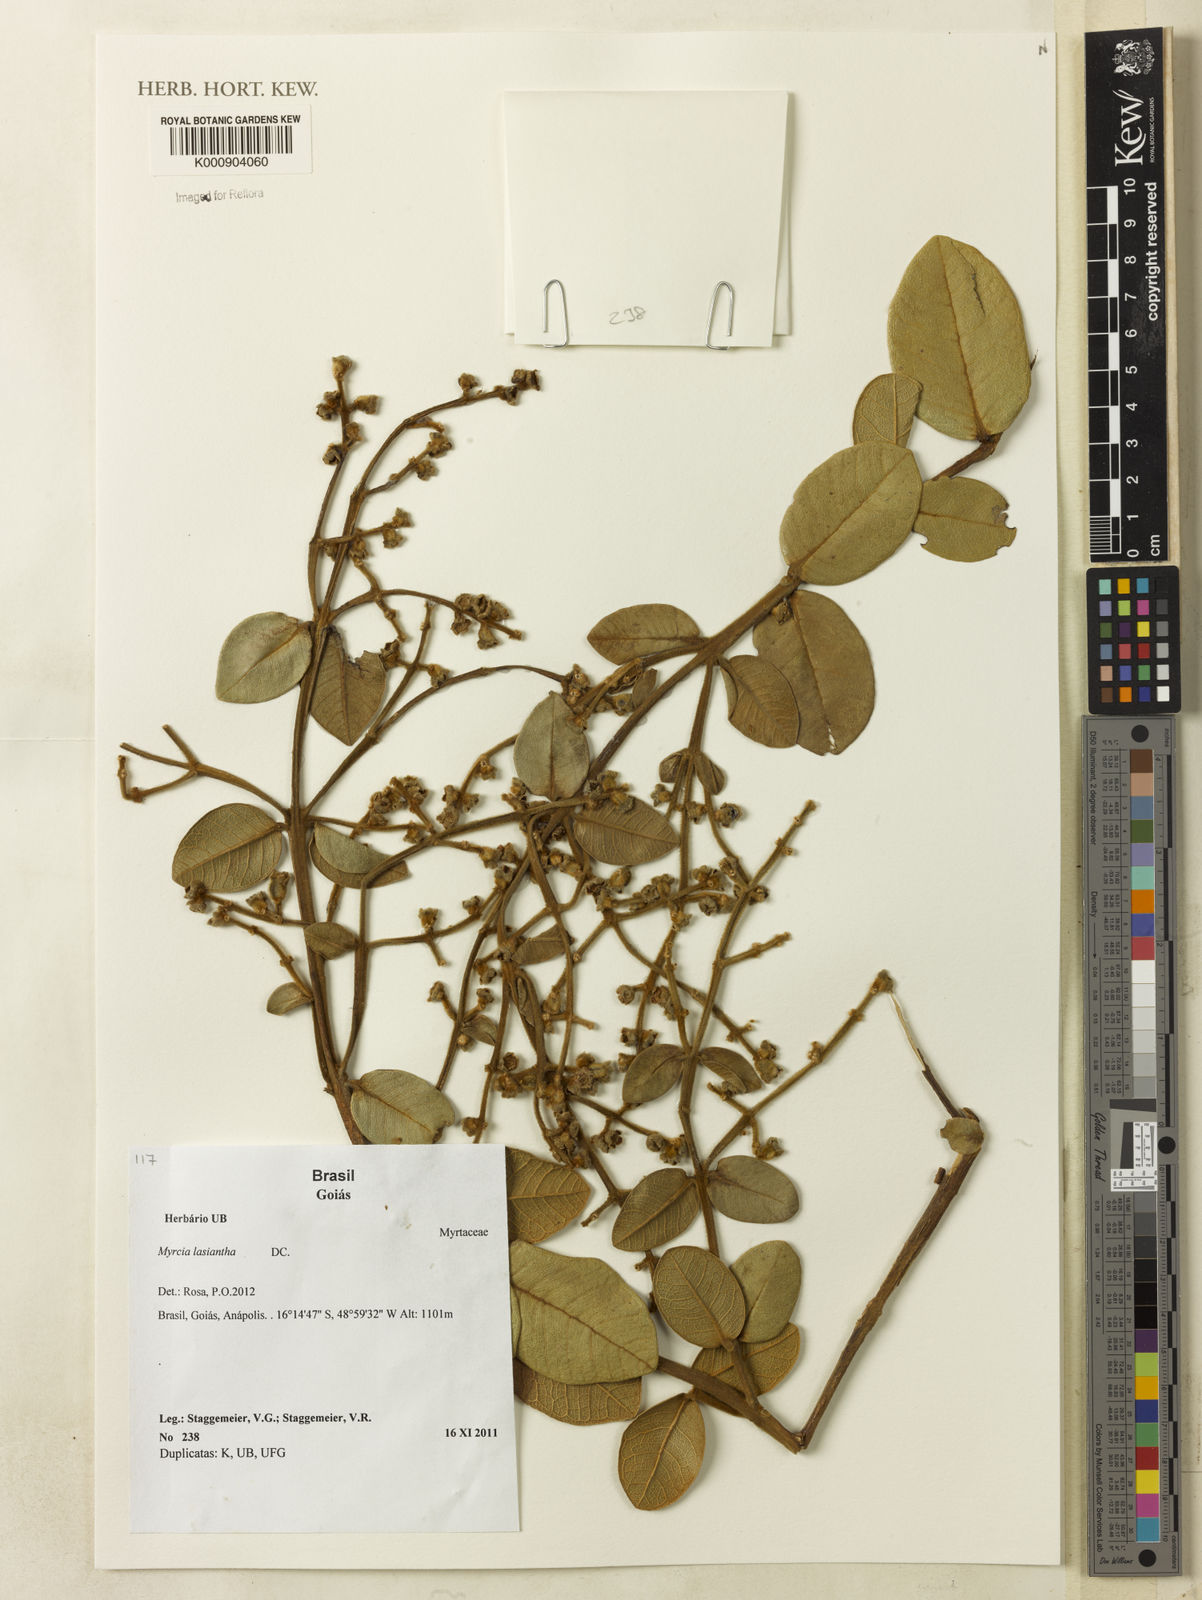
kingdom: Plantae
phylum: Tracheophyta
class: Magnoliopsida
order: Myrtales
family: Myrtaceae
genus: Myrcia
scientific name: Myrcia lasiantha
